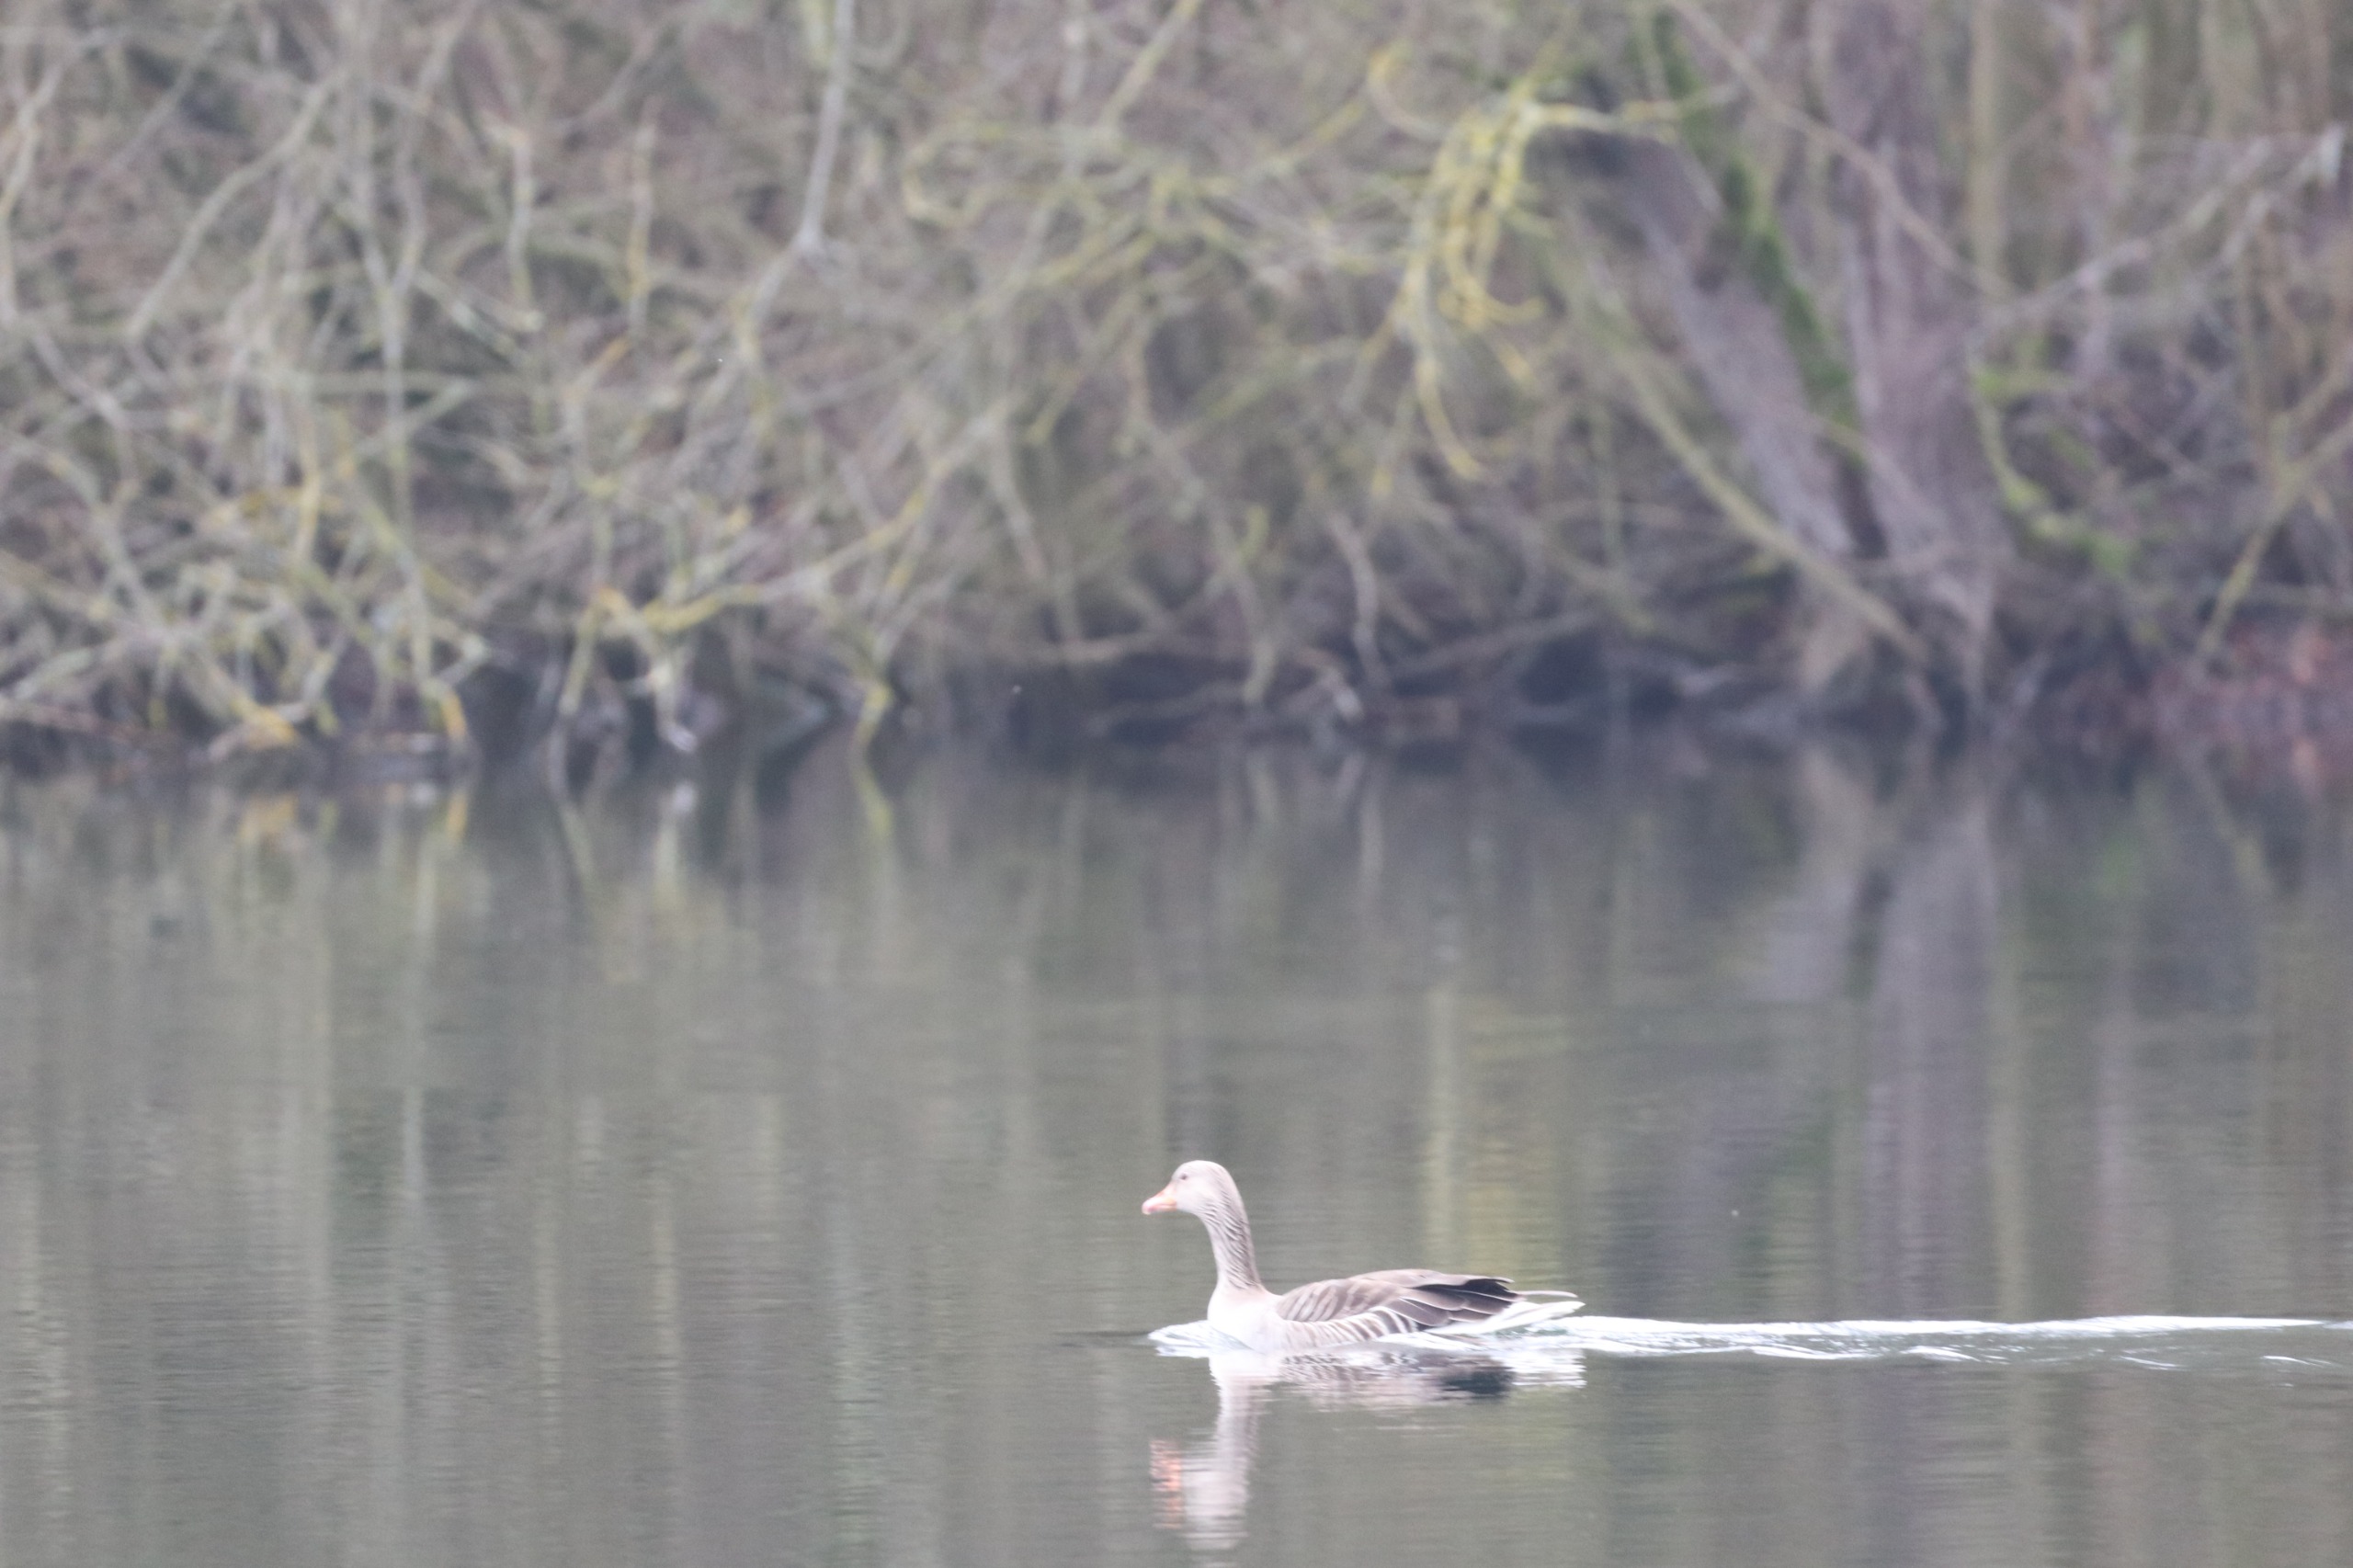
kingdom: Animalia
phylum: Chordata
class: Aves
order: Anseriformes
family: Anatidae
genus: Anser
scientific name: Anser anser
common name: Grågås
